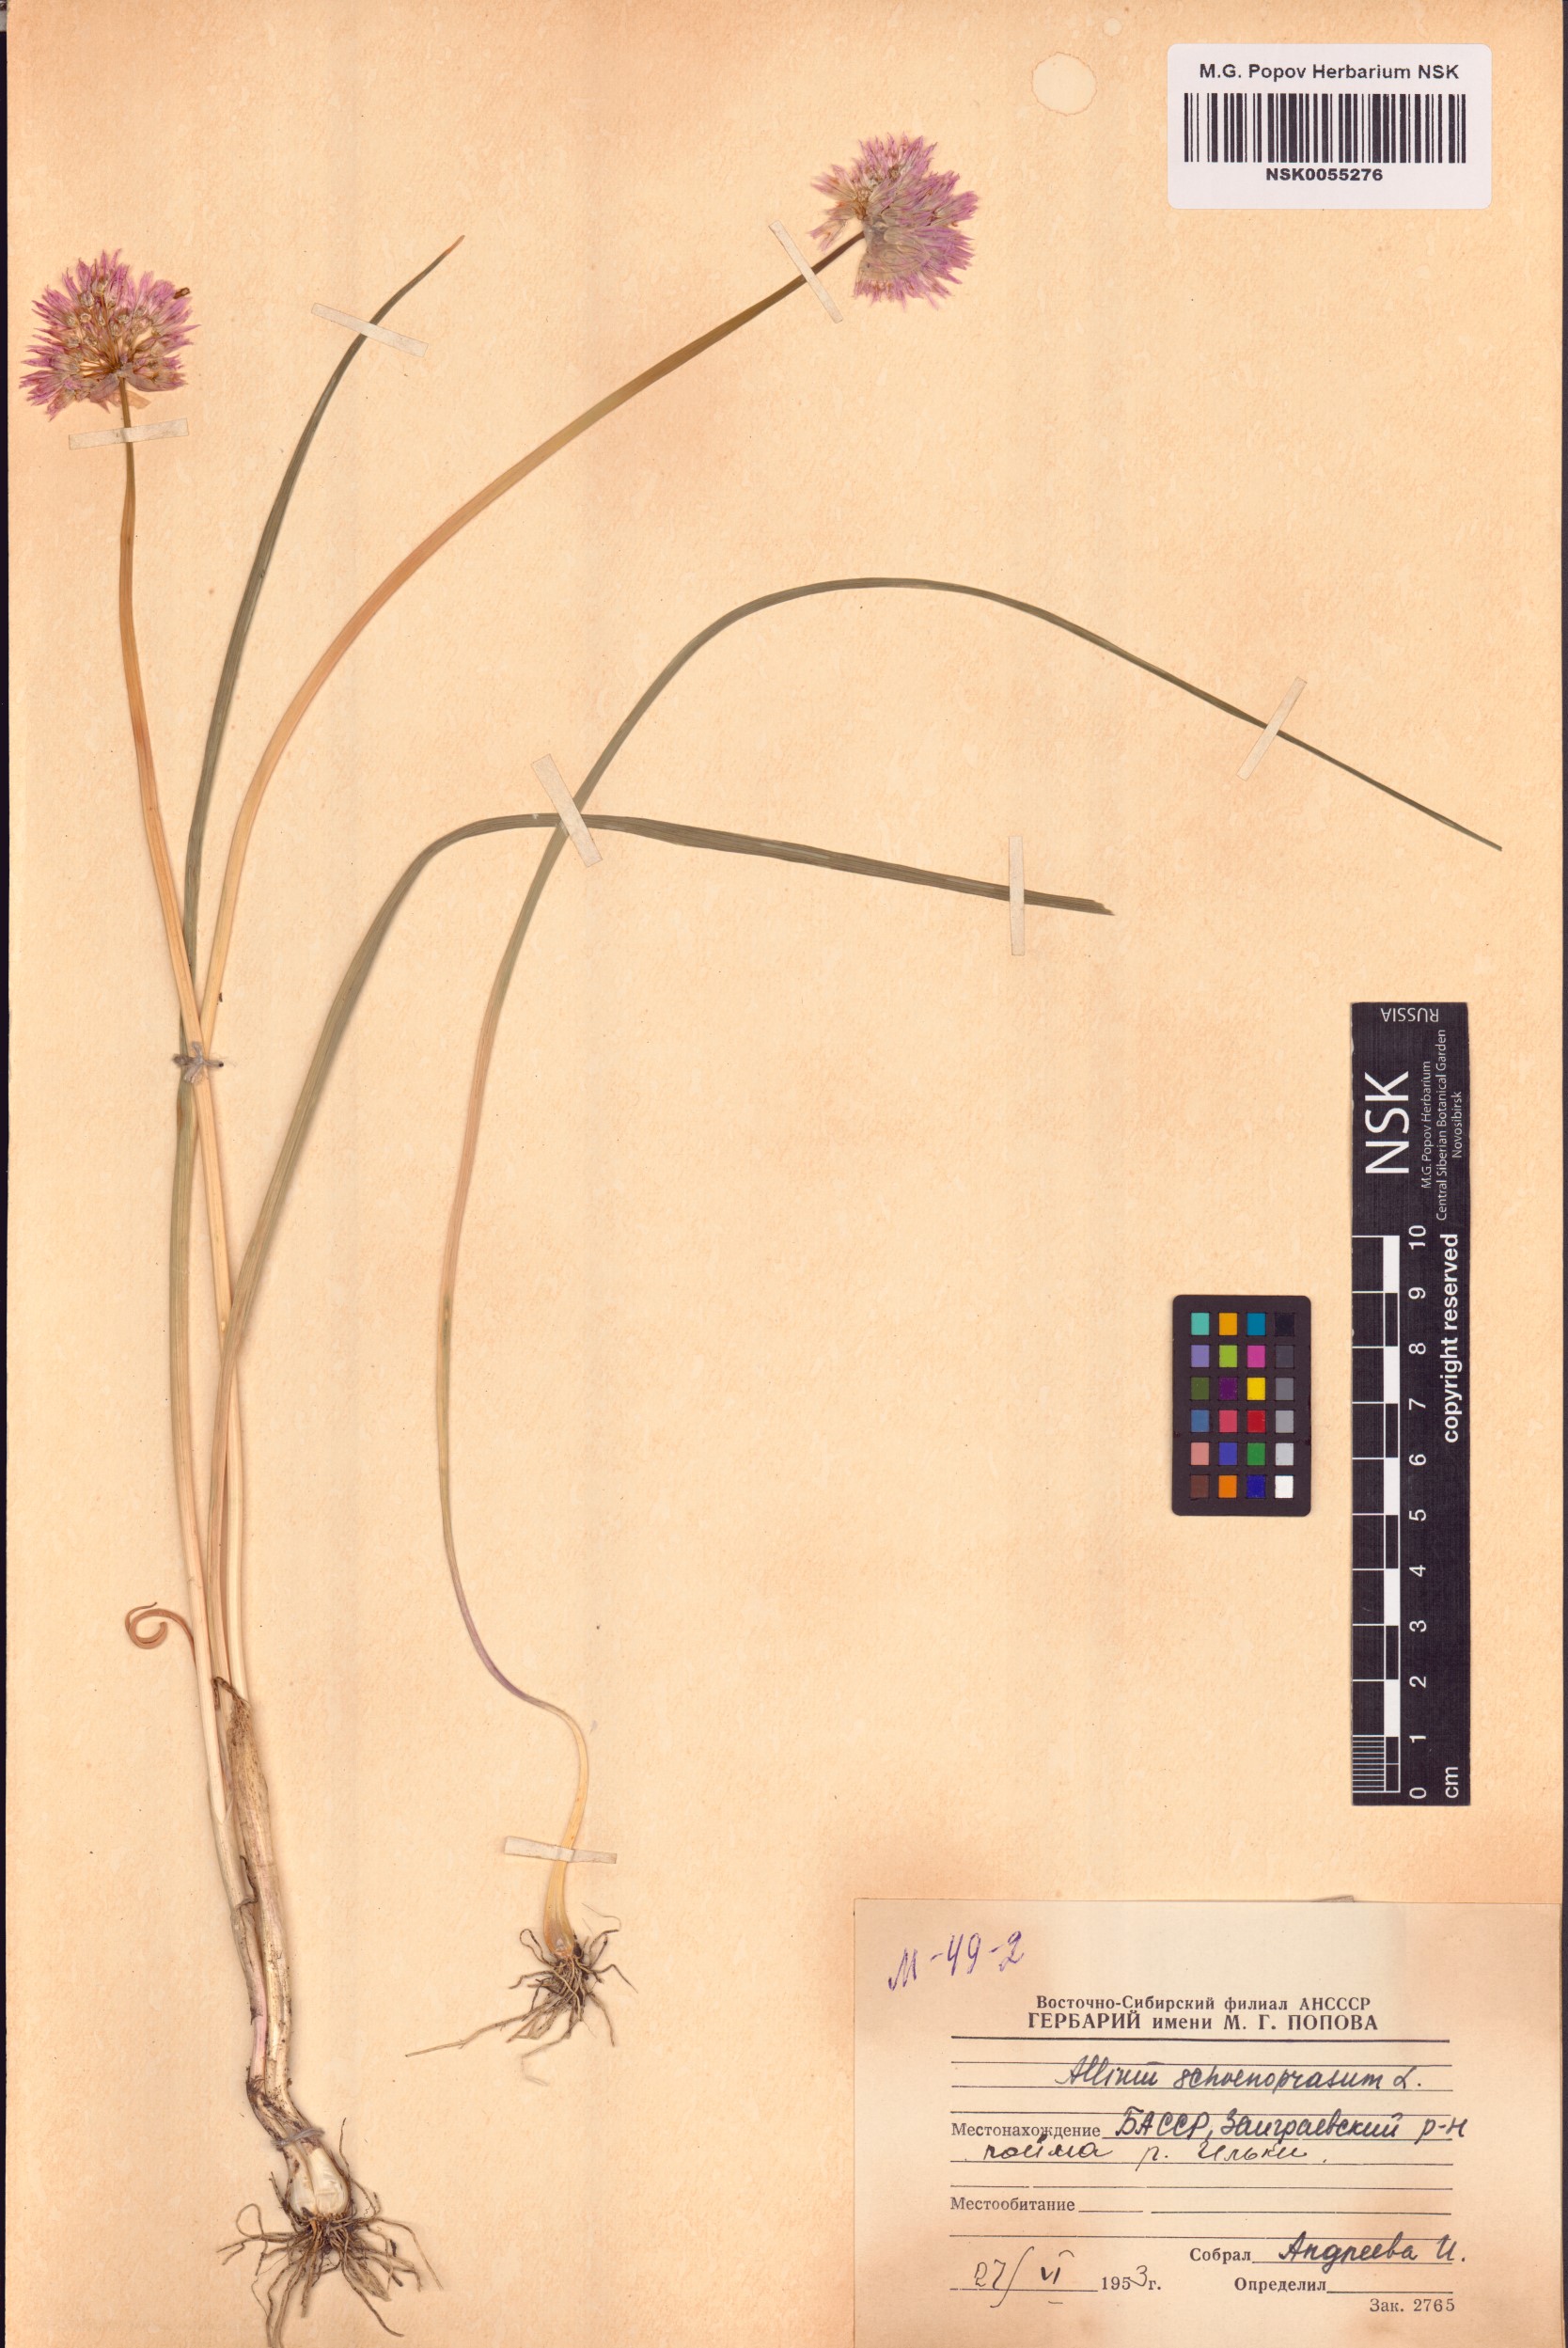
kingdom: Plantae
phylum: Tracheophyta
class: Liliopsida
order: Asparagales
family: Amaryllidaceae
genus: Allium
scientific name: Allium schoenoprasum
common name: Chives
